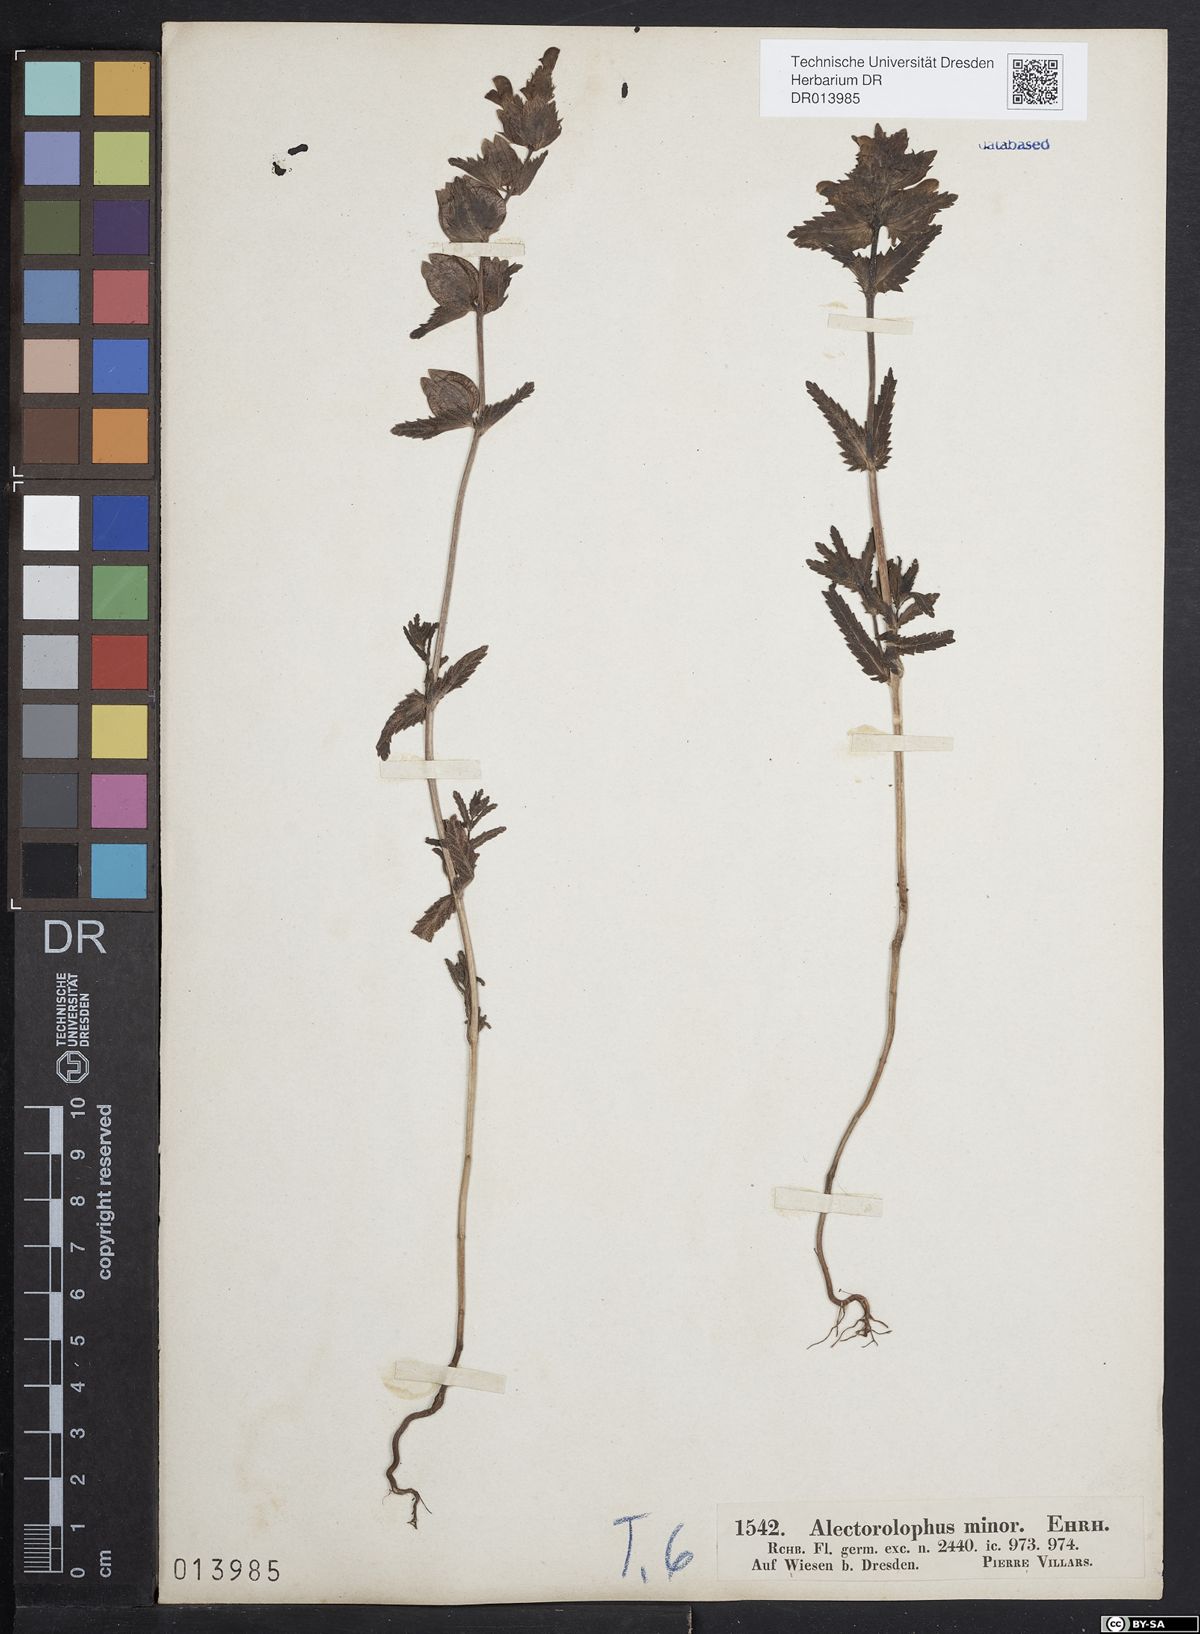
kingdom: Plantae
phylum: Tracheophyta
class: Magnoliopsida
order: Lamiales
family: Orobanchaceae
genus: Rhinanthus
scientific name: Rhinanthus minor
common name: Yellow-rattle
